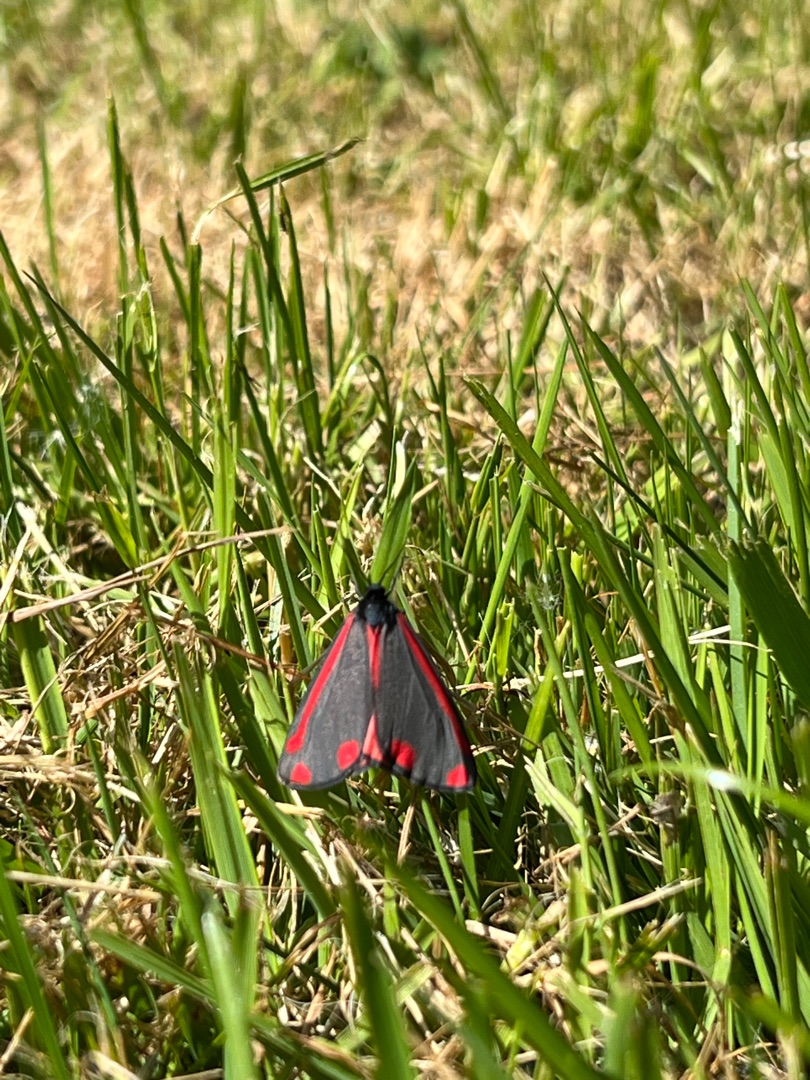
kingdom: Animalia
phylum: Arthropoda
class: Insecta
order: Lepidoptera
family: Erebidae
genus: Tyria
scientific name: Tyria jacobaeae
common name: Blodplet
